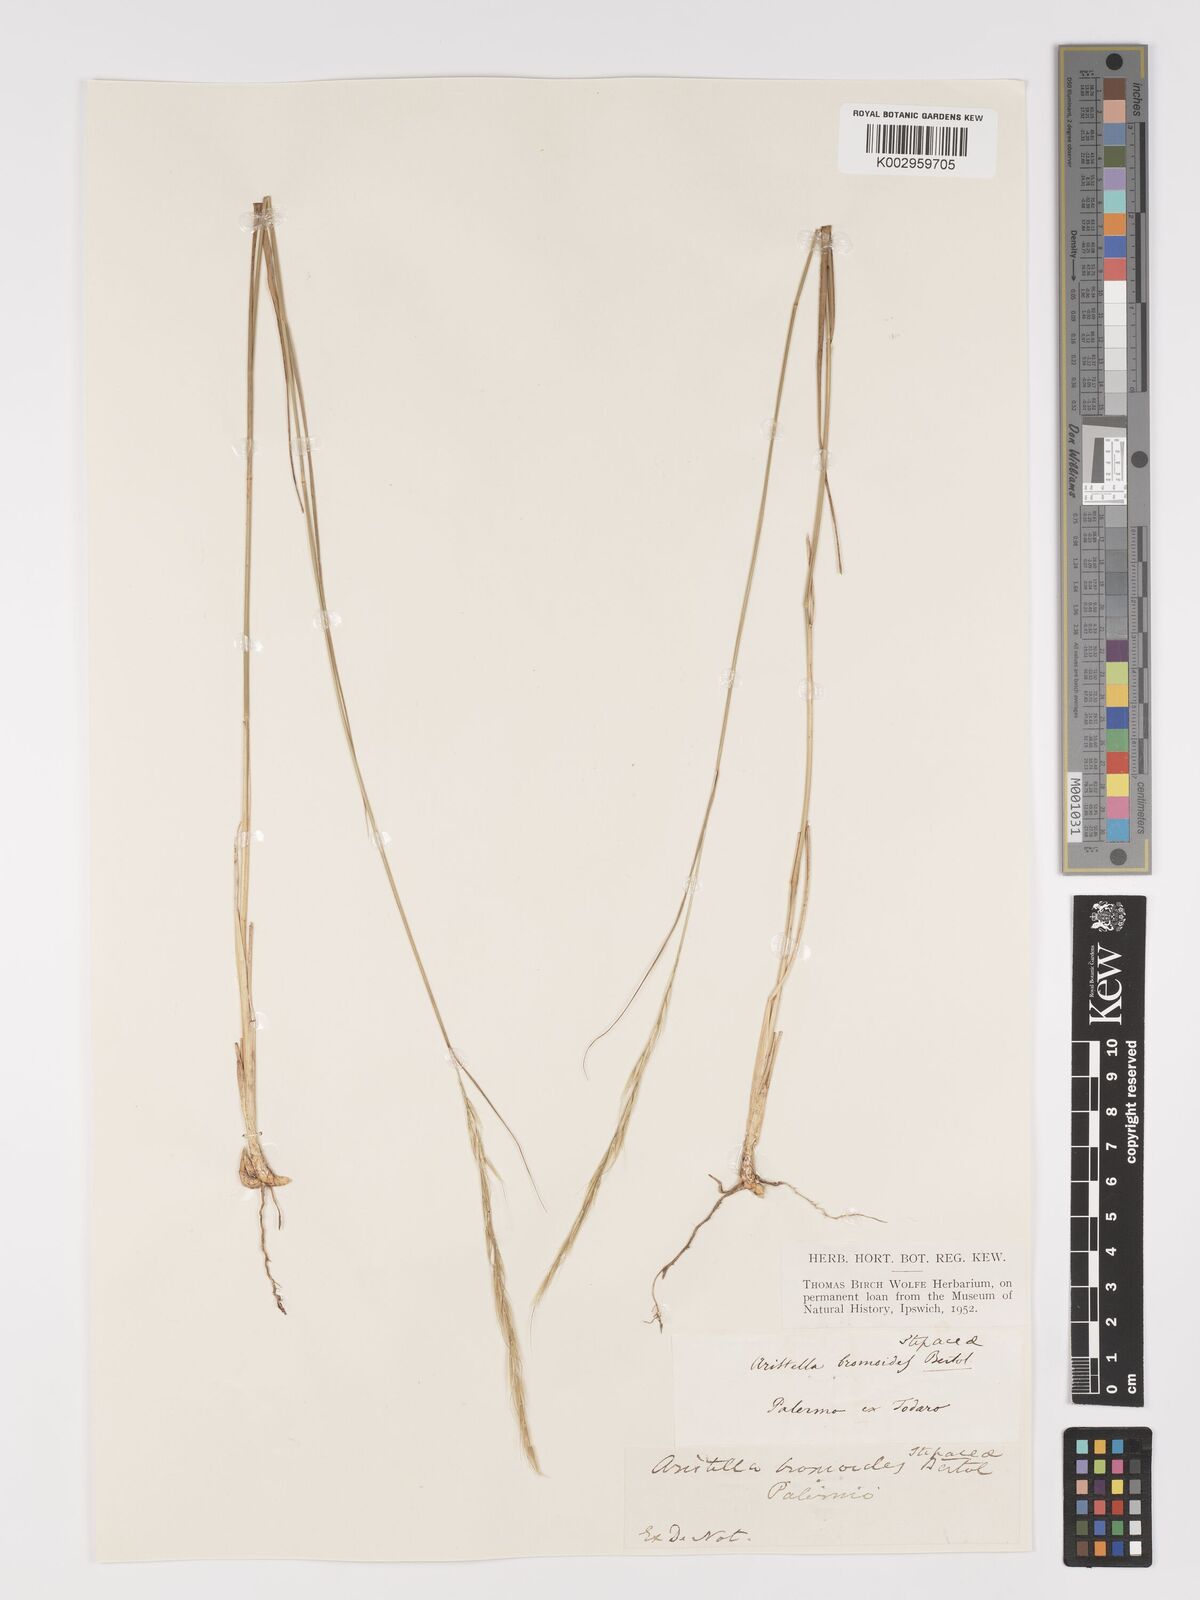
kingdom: Plantae
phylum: Tracheophyta
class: Liliopsida
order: Poales
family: Poaceae
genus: Achnatherum
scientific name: Achnatherum bromoides
